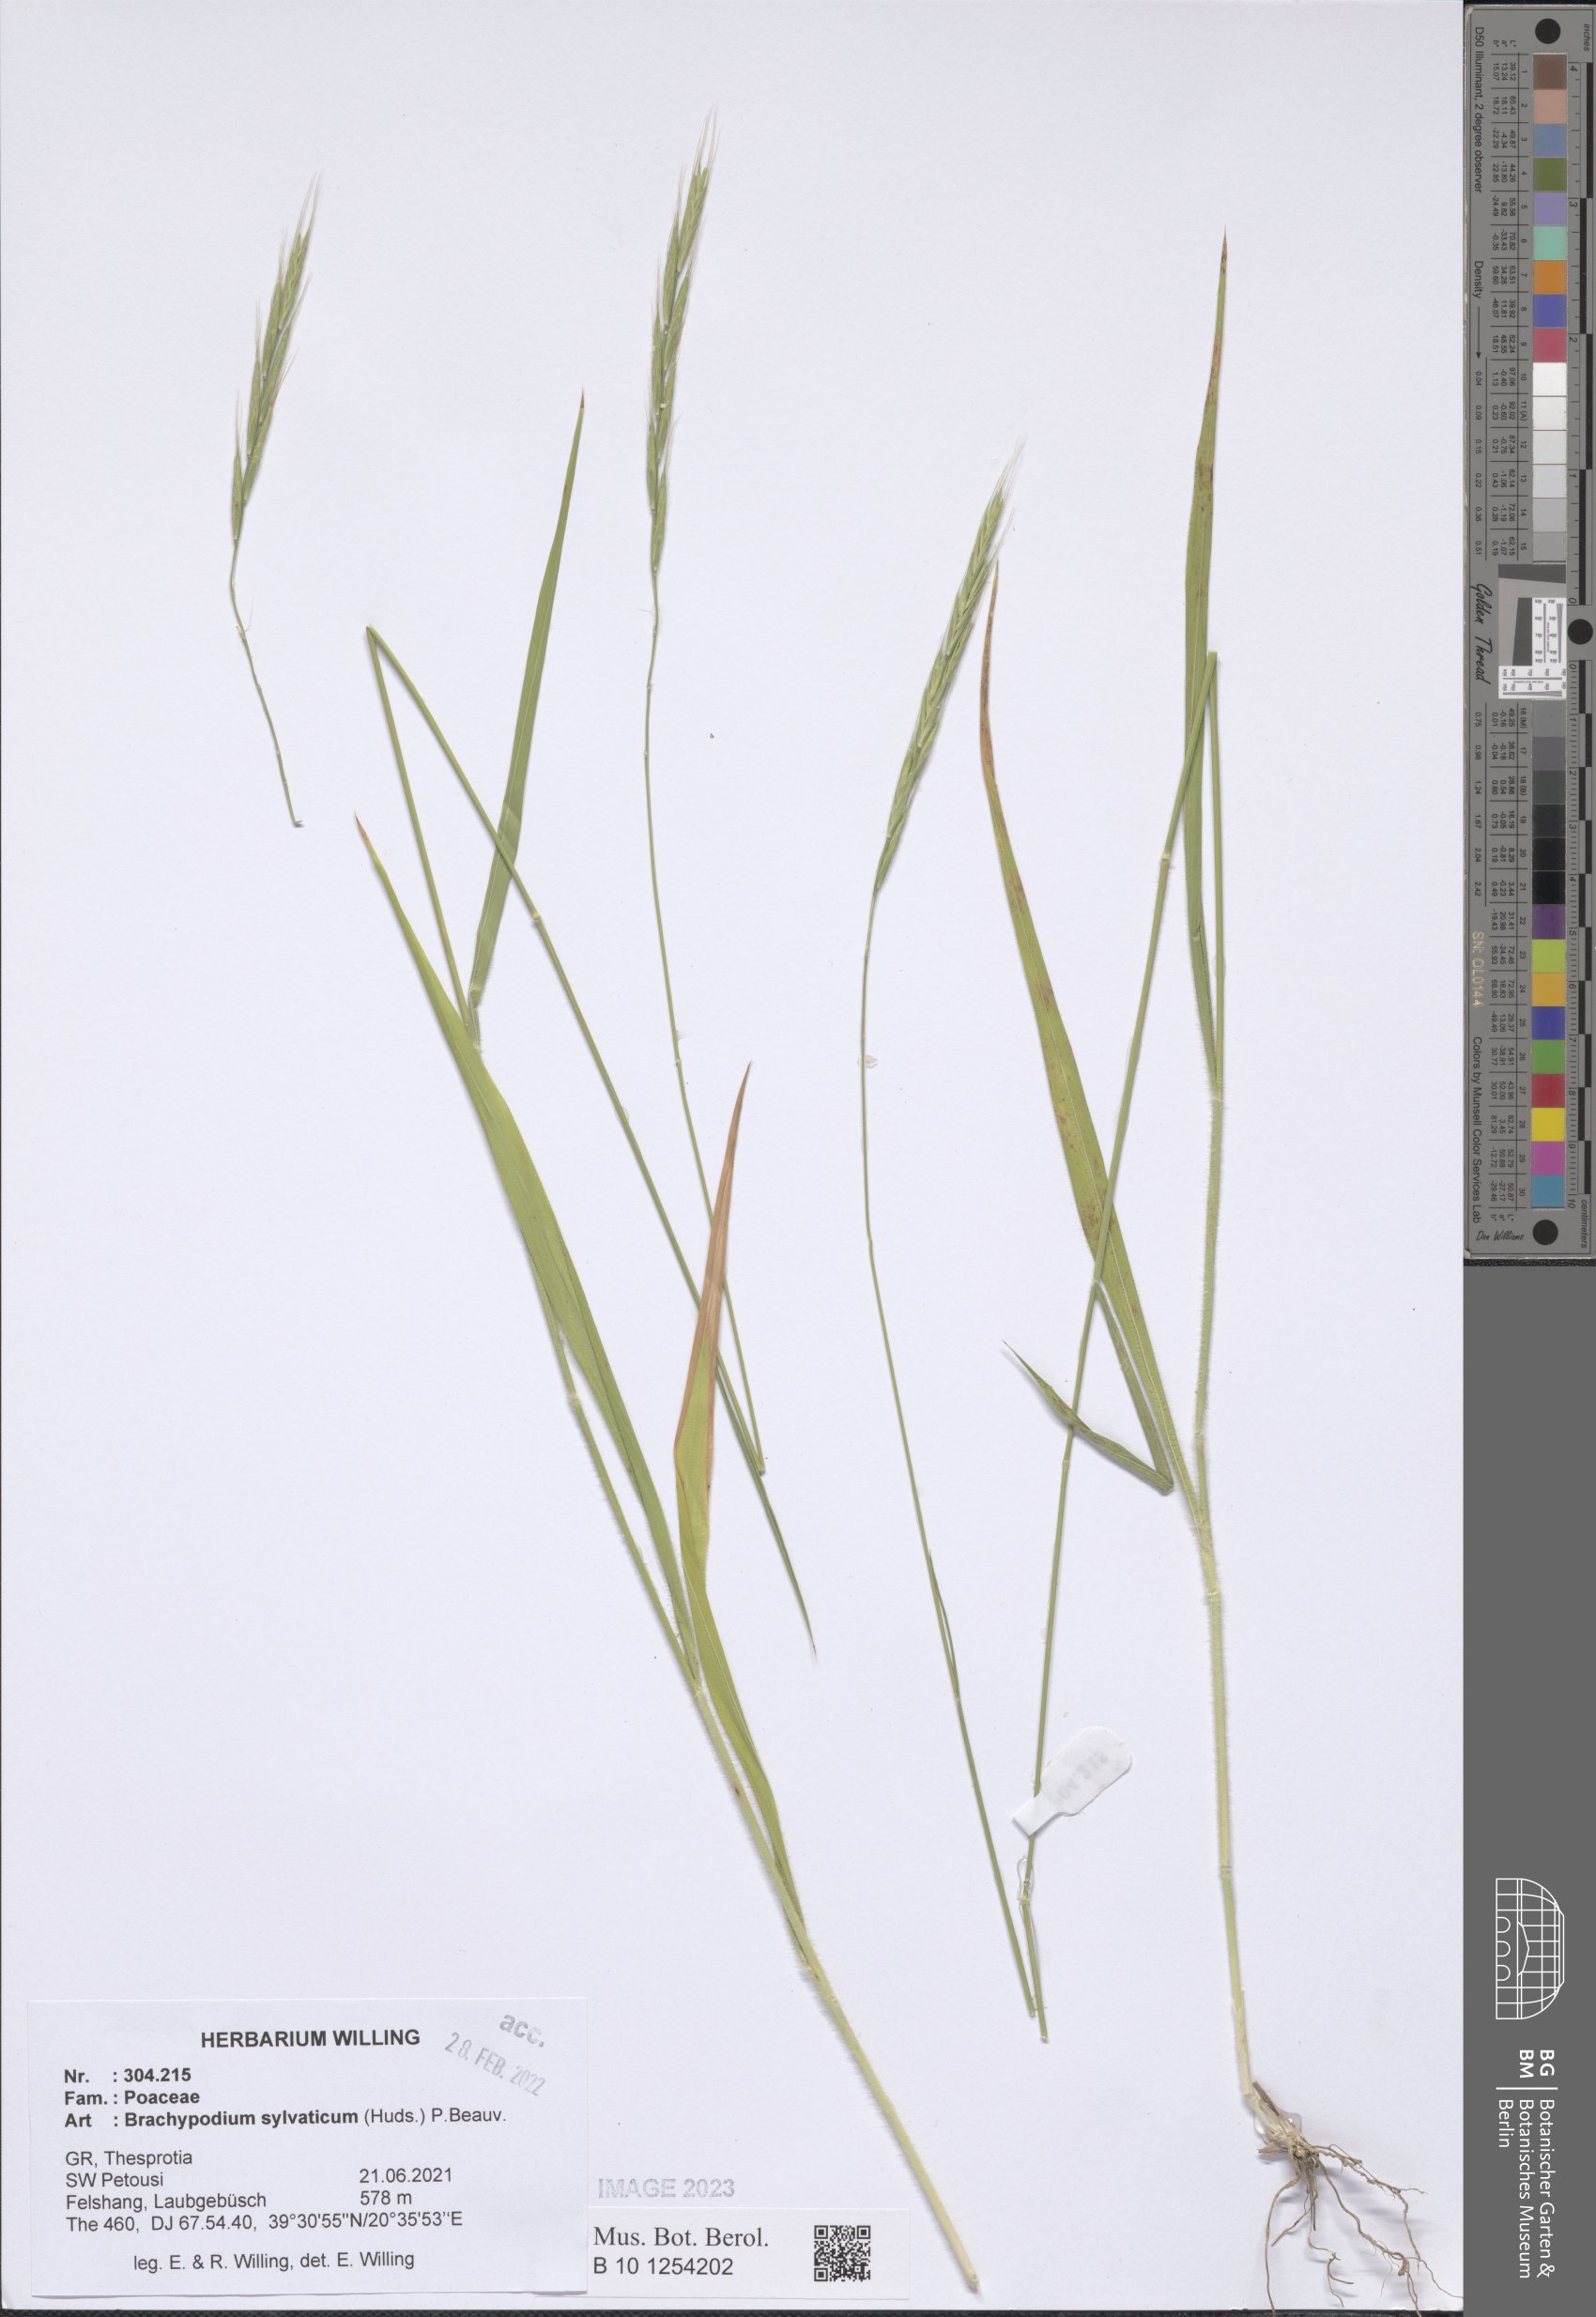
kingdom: Plantae
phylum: Tracheophyta
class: Liliopsida
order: Poales
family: Poaceae
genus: Brachypodium
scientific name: Brachypodium sylvaticum
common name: False-brome
